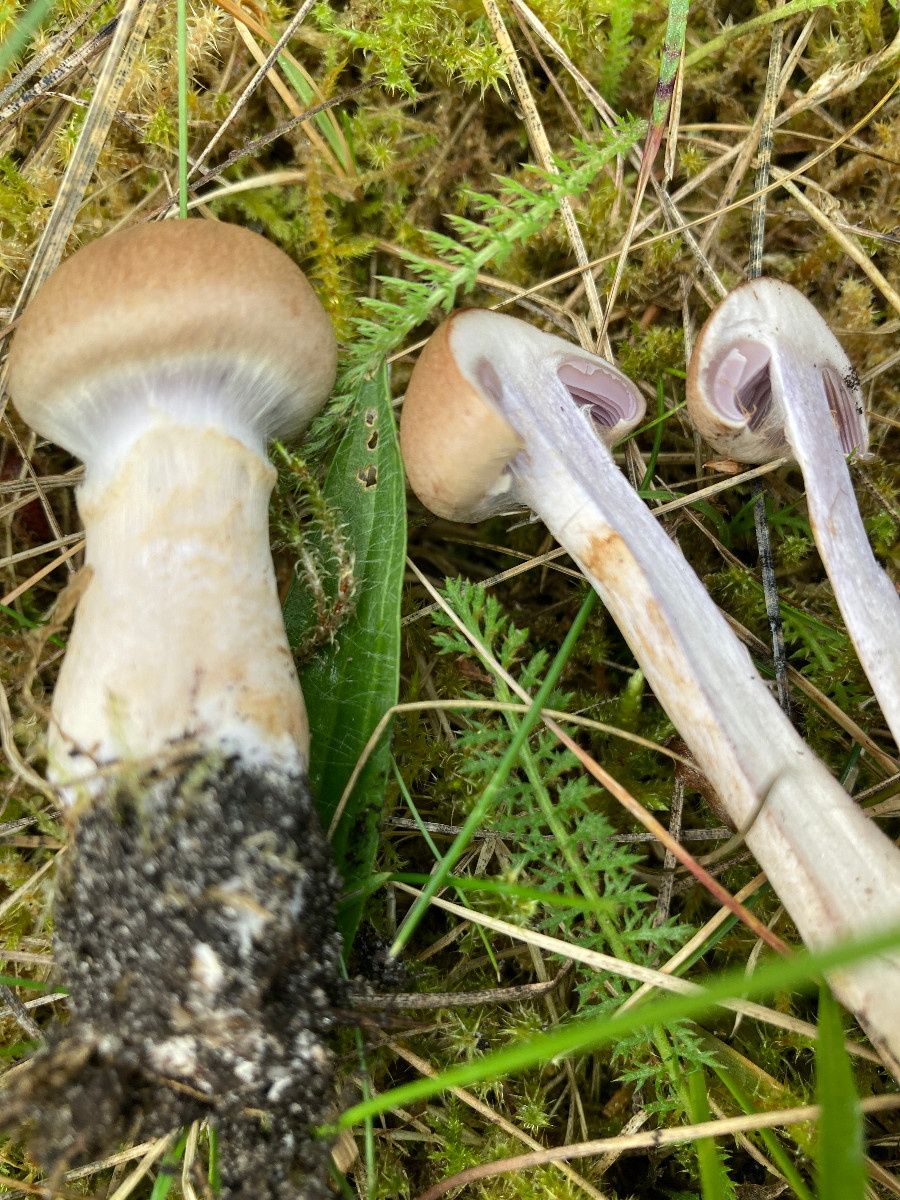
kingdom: Fungi
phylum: Basidiomycota
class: Agaricomycetes
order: Agaricales
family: Cortinariaceae
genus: Cortinarius
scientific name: Cortinarius
